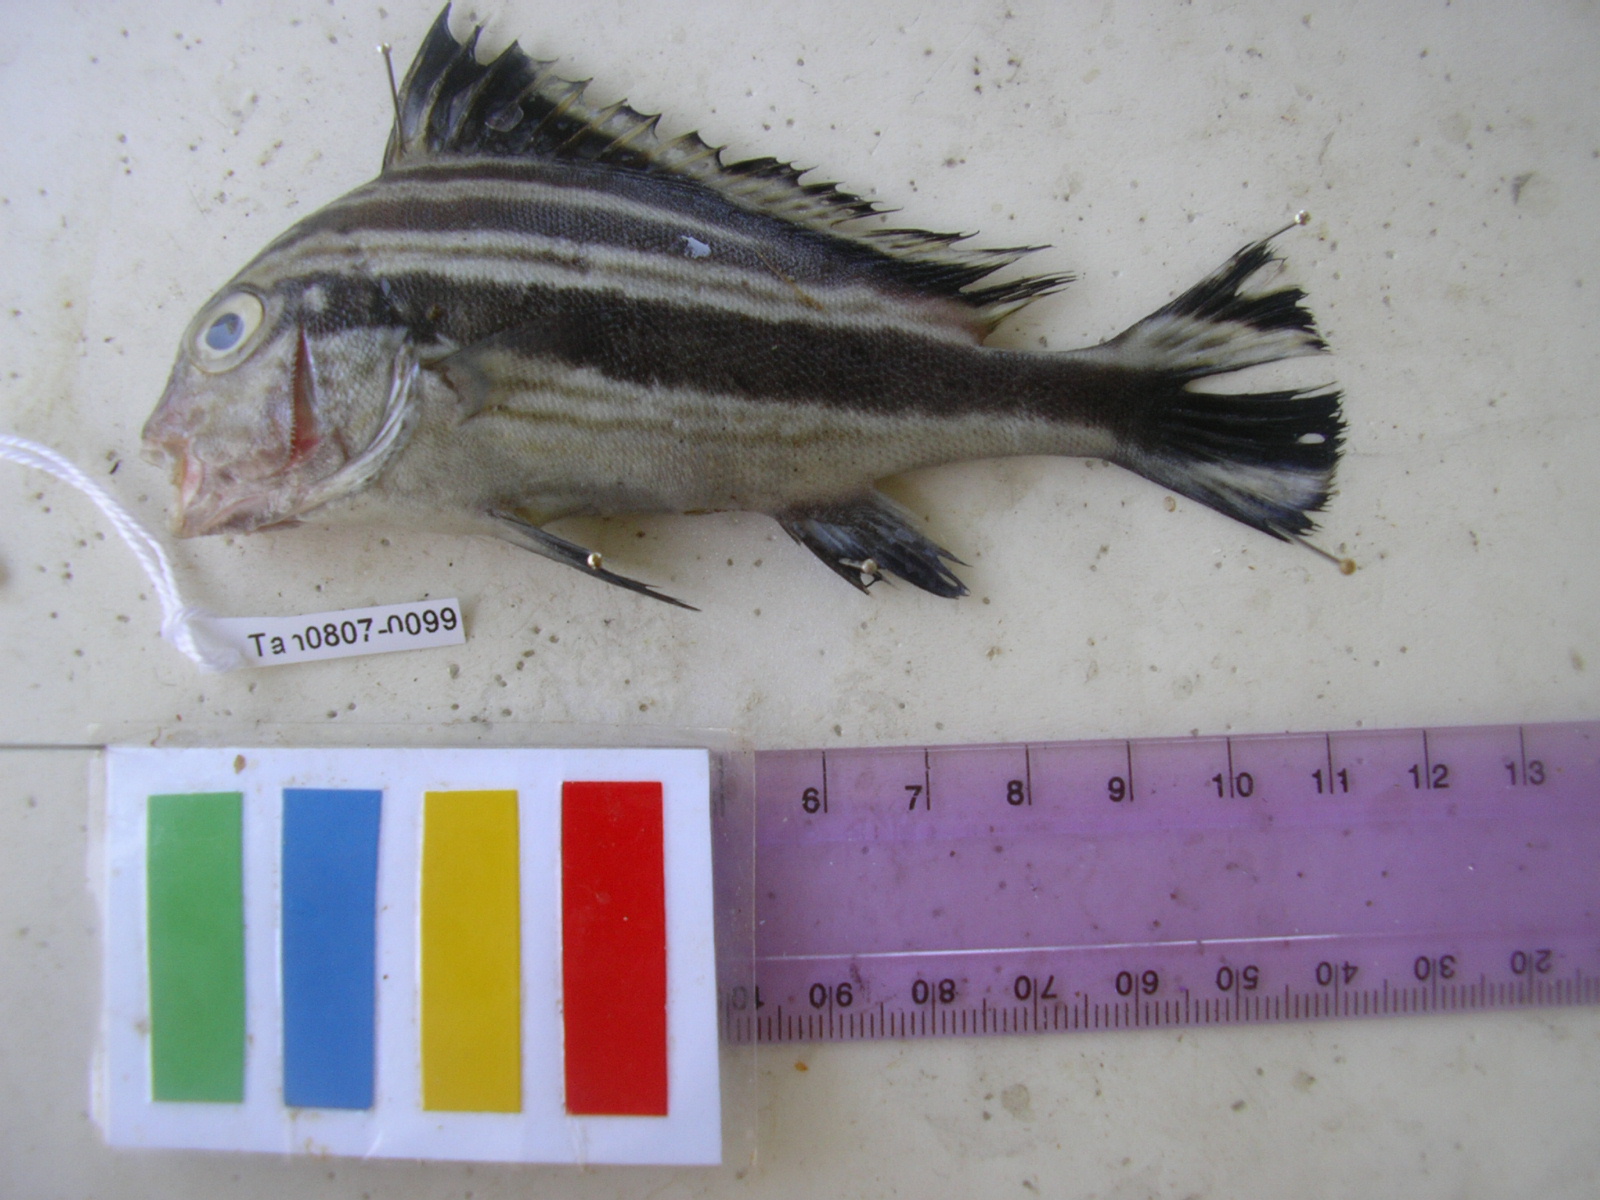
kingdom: Animalia
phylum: Chordata
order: Perciformes
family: Haemulidae
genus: Diagramma
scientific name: Diagramma centurio
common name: Sailfin rubberlip
